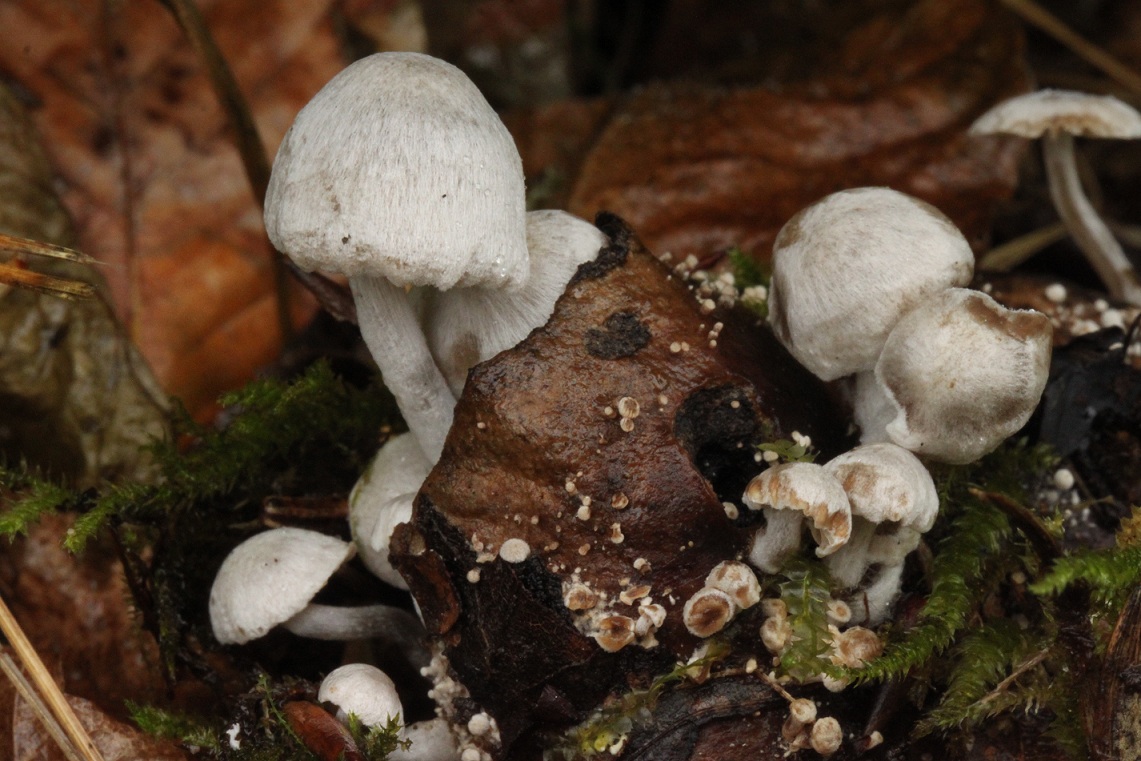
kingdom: Fungi
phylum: Basidiomycota
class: Agaricomycetes
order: Agaricales
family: Lyophyllaceae
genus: Asterophora
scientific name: Asterophora parasitica
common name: grå snyltehat
